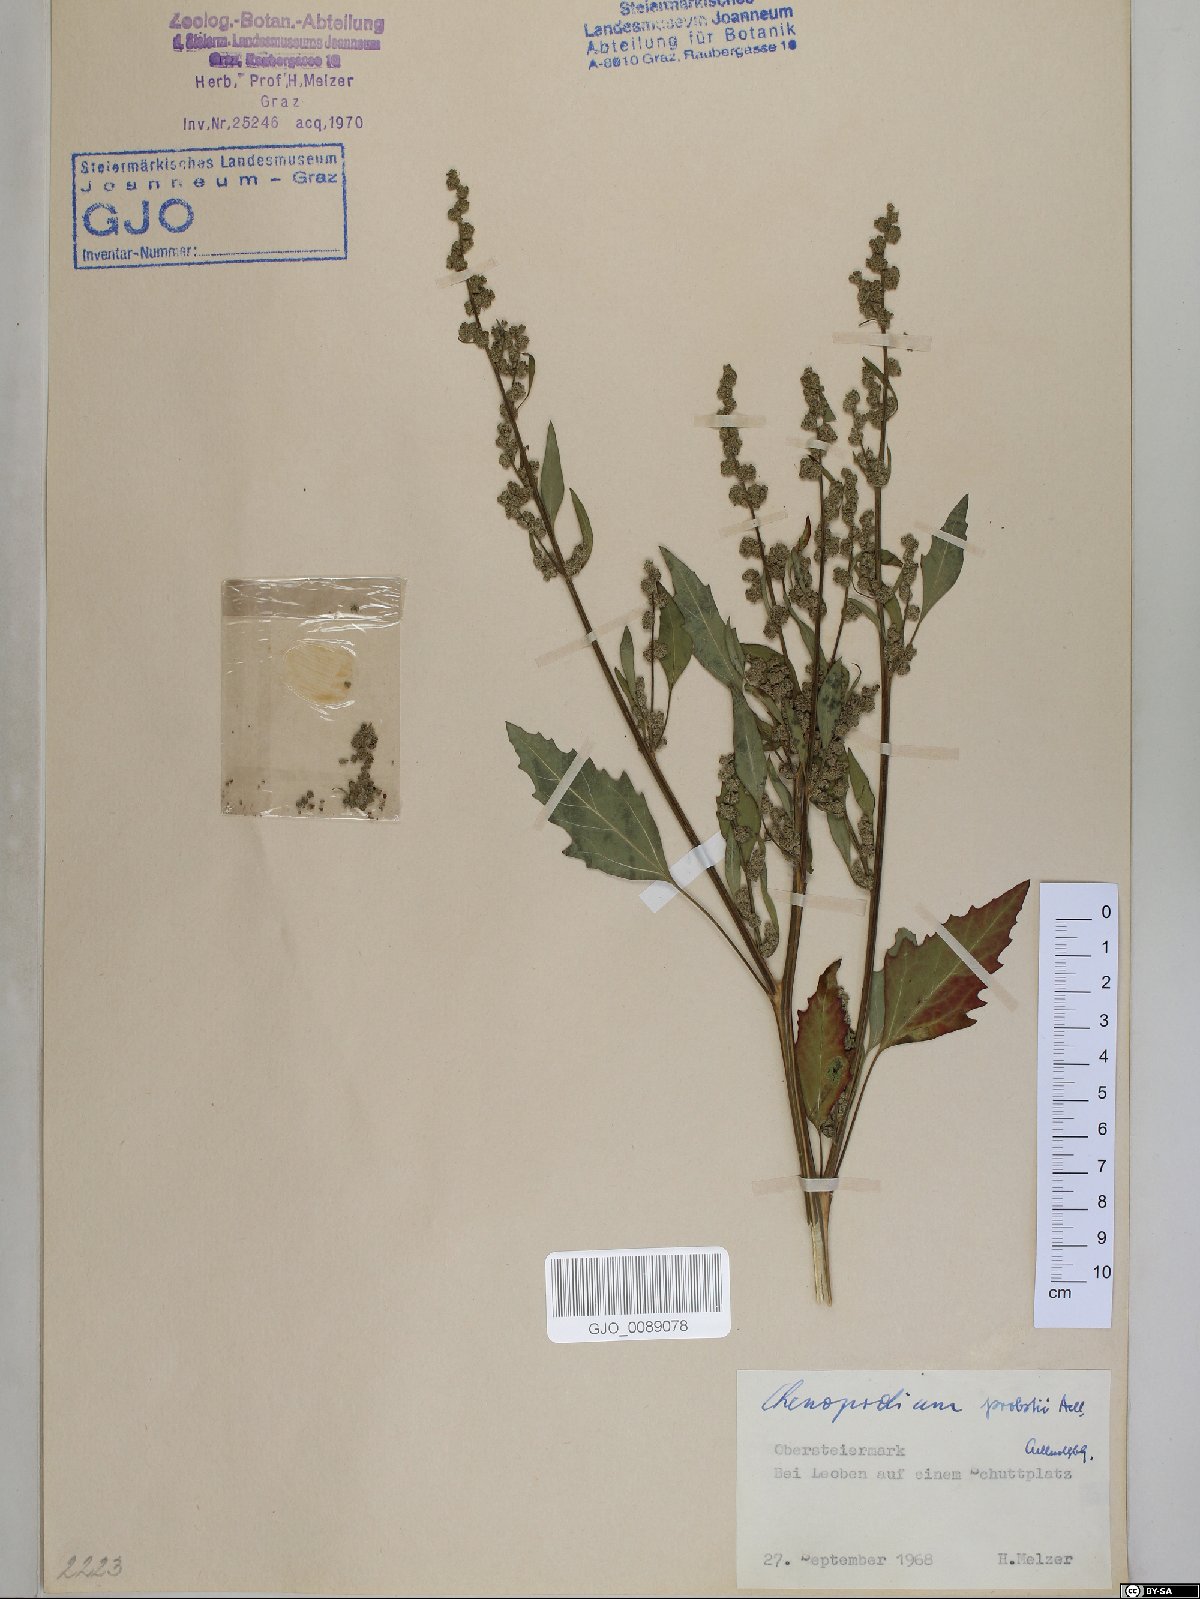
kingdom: Plantae
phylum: Tracheophyta
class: Magnoliopsida
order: Caryophyllales
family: Amaranthaceae
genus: Chenopodium
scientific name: Chenopodium probstii
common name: Probst's goosefoot
